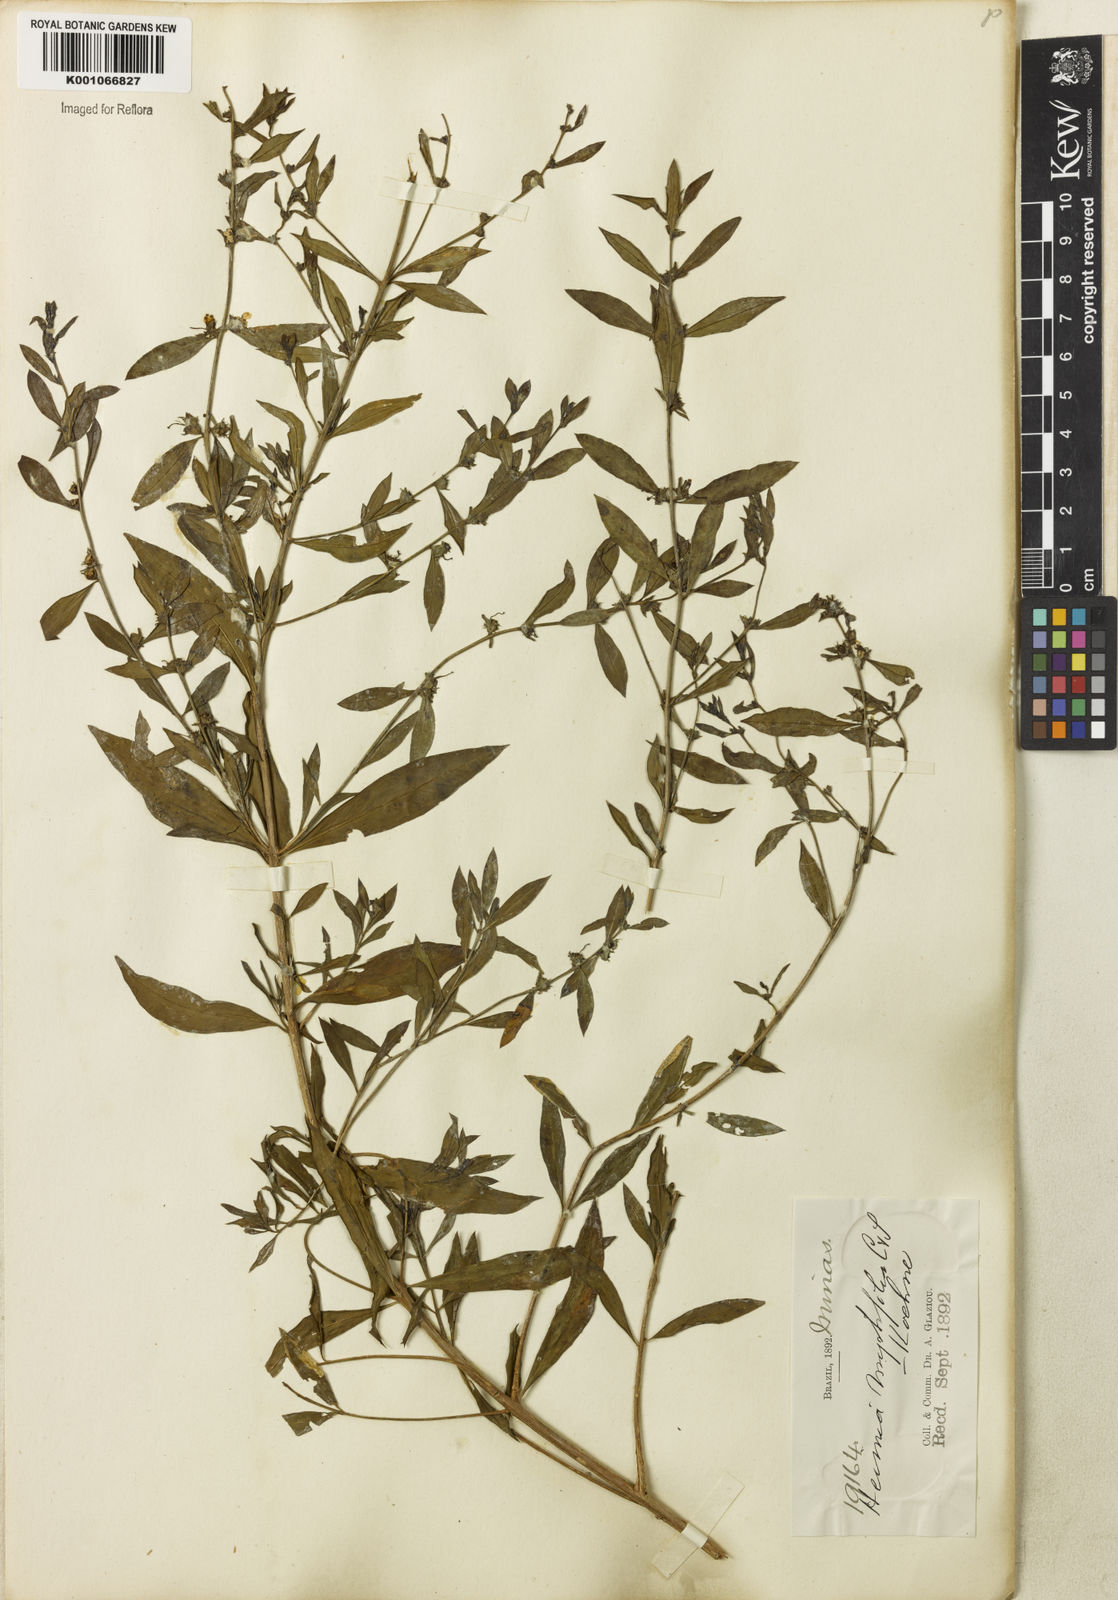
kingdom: Plantae
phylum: Tracheophyta
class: Magnoliopsida
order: Myrtales
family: Lythraceae
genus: Heimia
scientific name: Heimia apetala
